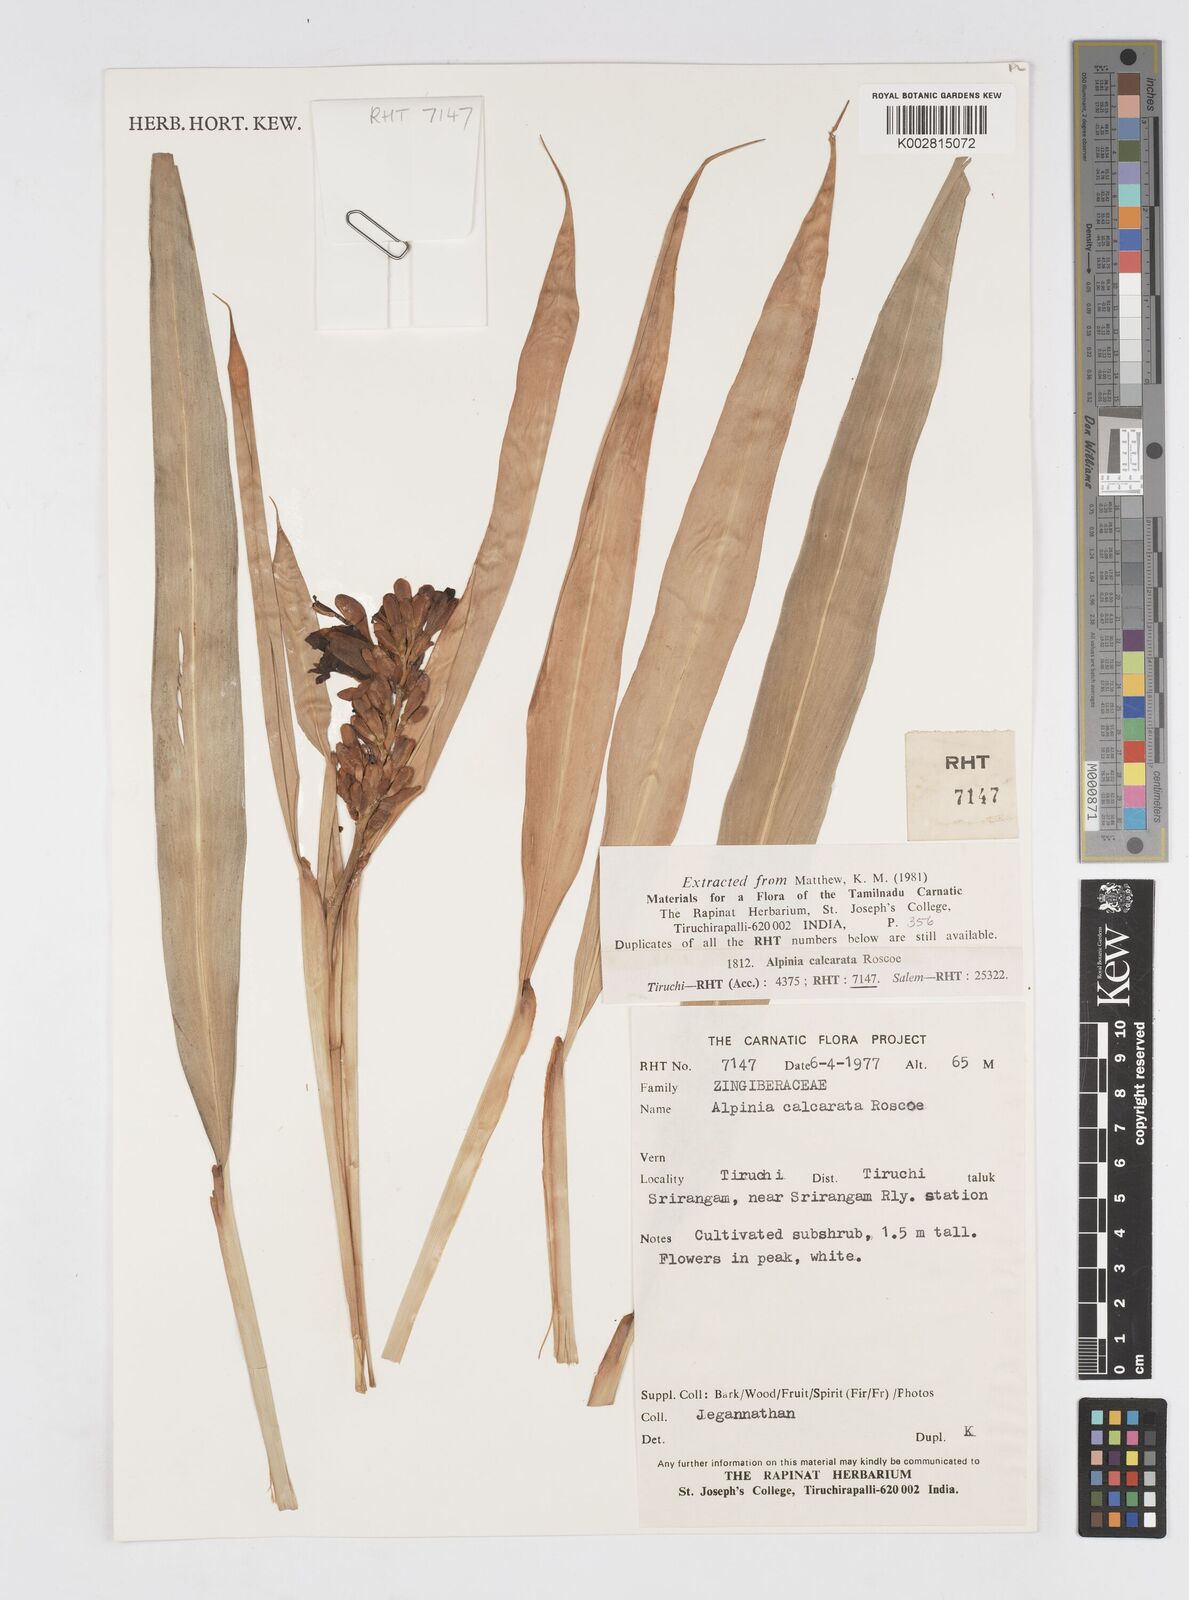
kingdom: Plantae
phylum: Tracheophyta
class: Liliopsida
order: Zingiberales
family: Zingiberaceae
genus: Alpinia
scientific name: Alpinia calcarata
